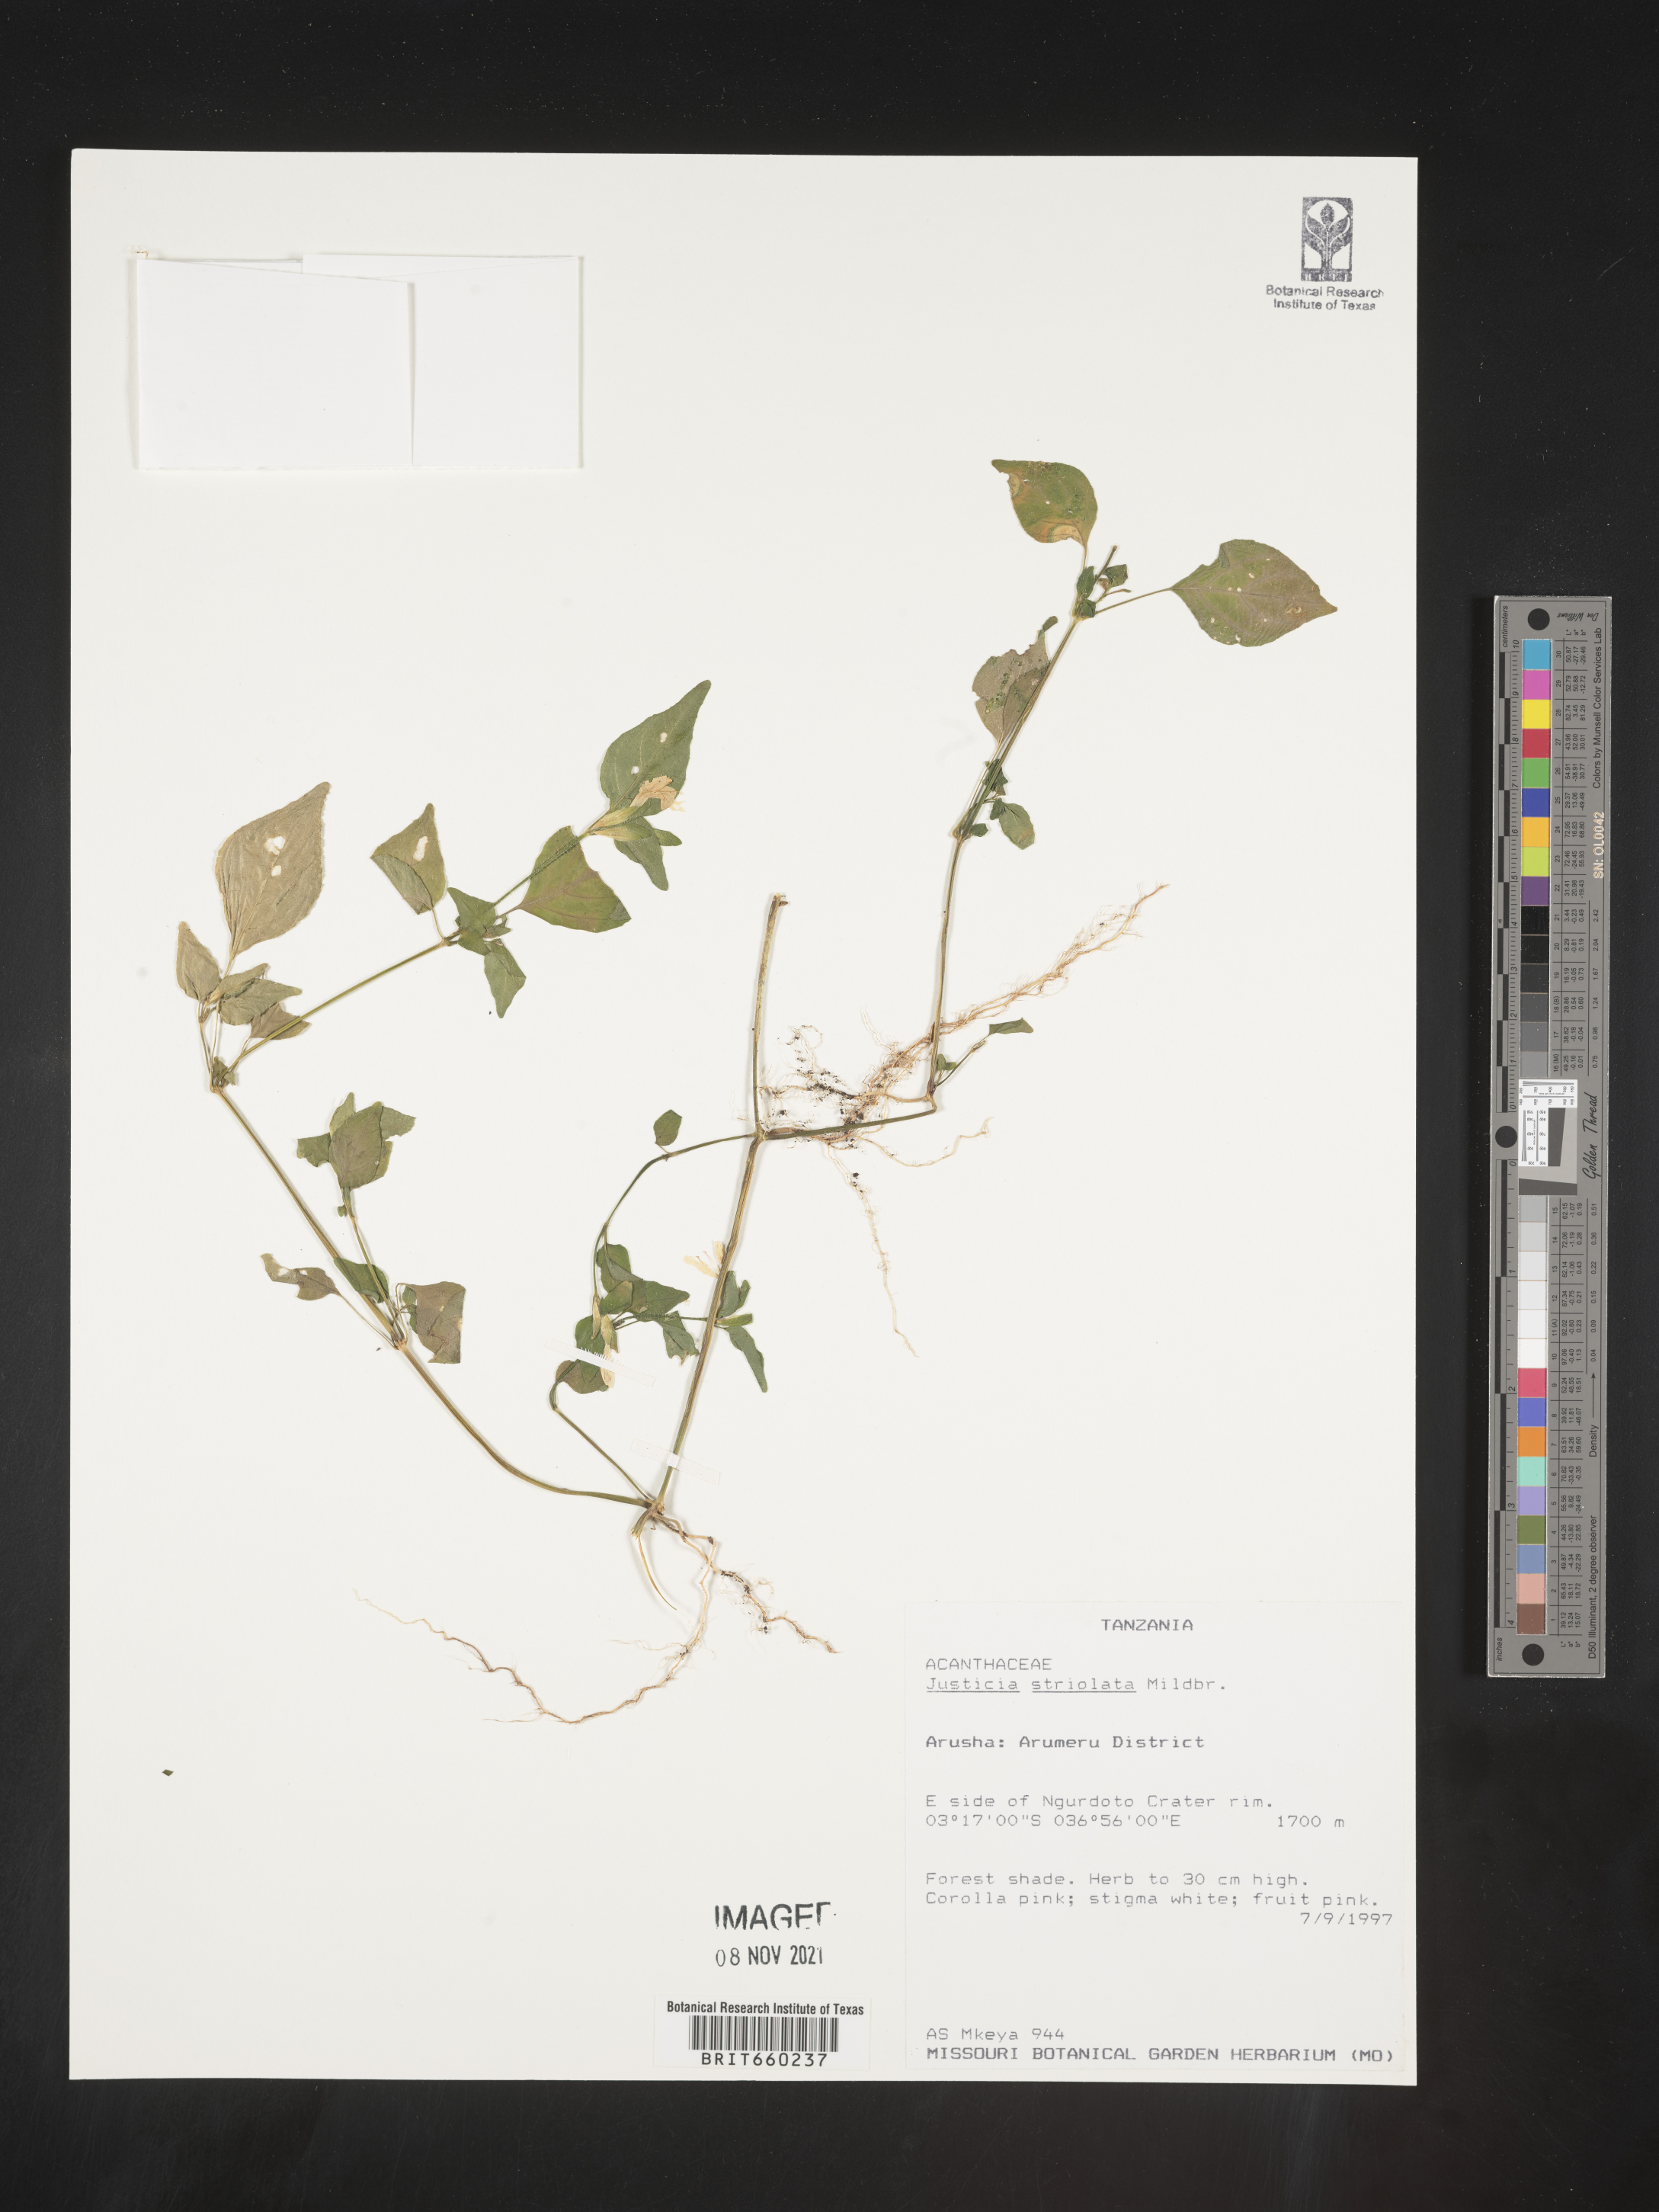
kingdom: Plantae
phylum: Tracheophyta
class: Magnoliopsida
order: Lamiales
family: Acanthaceae
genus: Justicia
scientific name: Justicia
